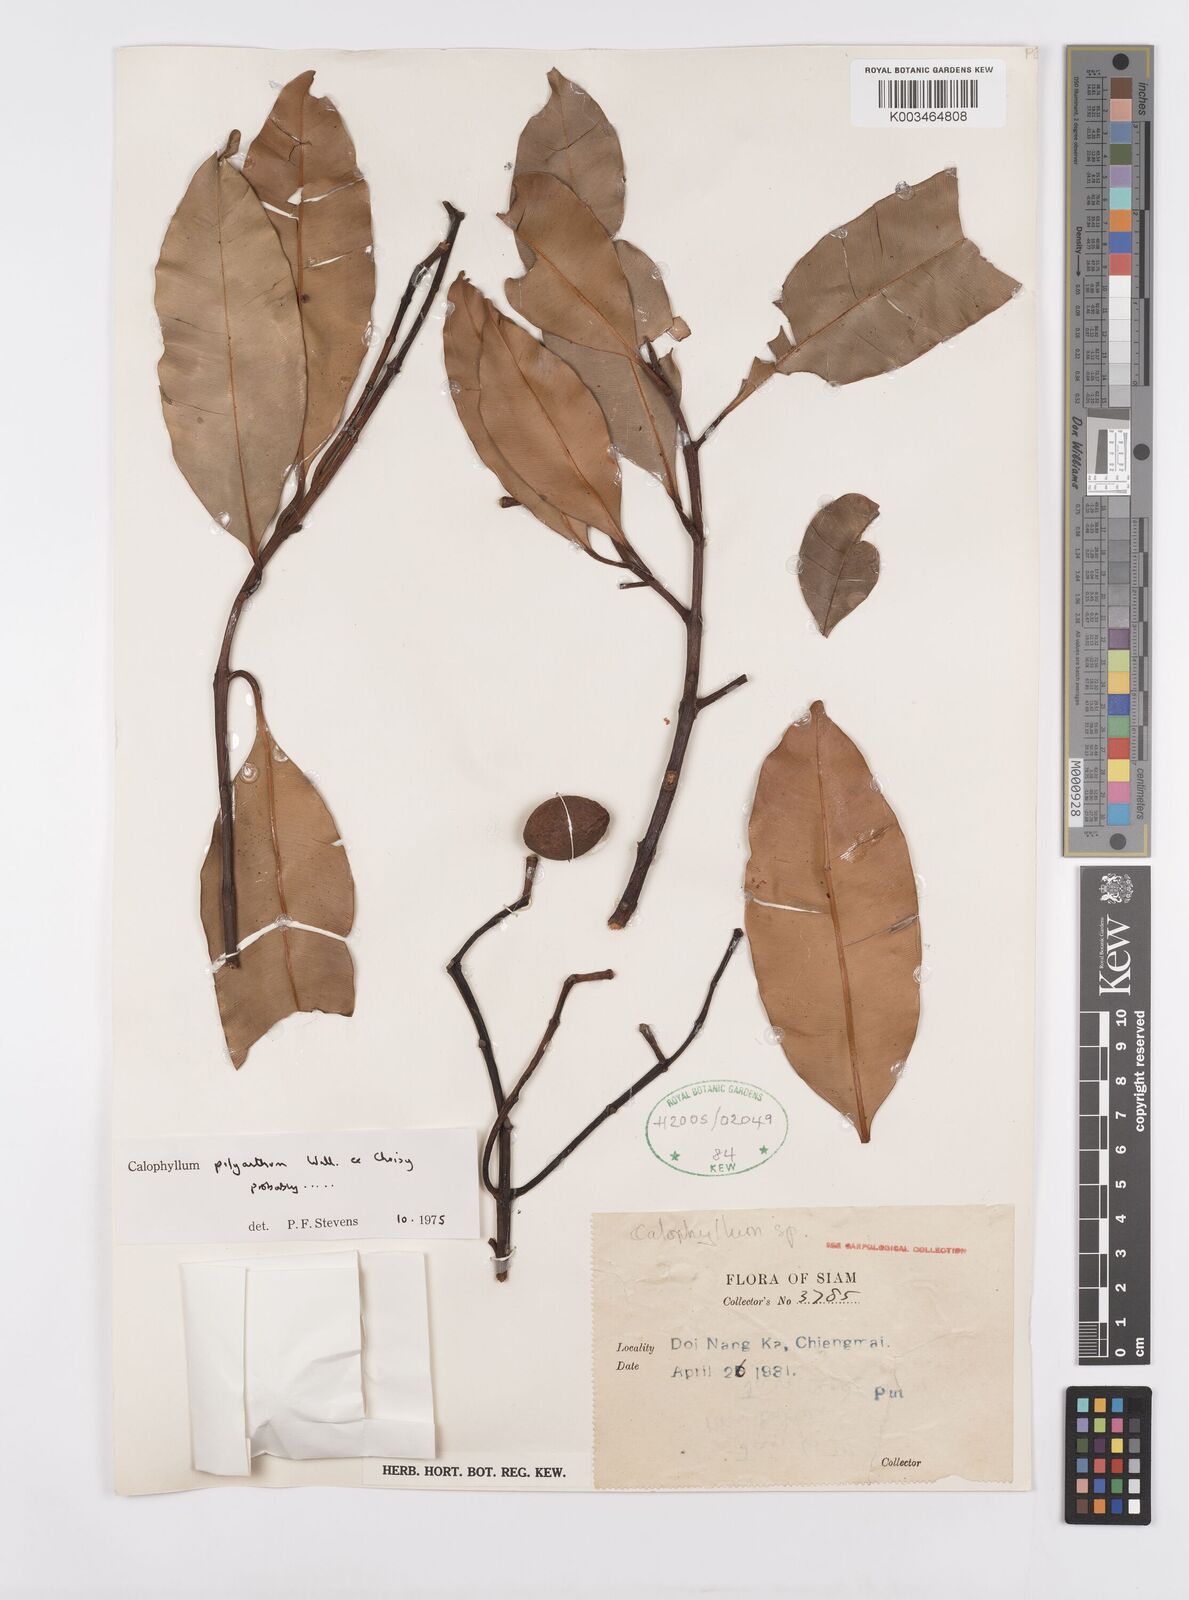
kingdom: Plantae
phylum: Tracheophyta
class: Magnoliopsida
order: Malpighiales
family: Calophyllaceae
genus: Calophyllum
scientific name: Calophyllum pisiferum
